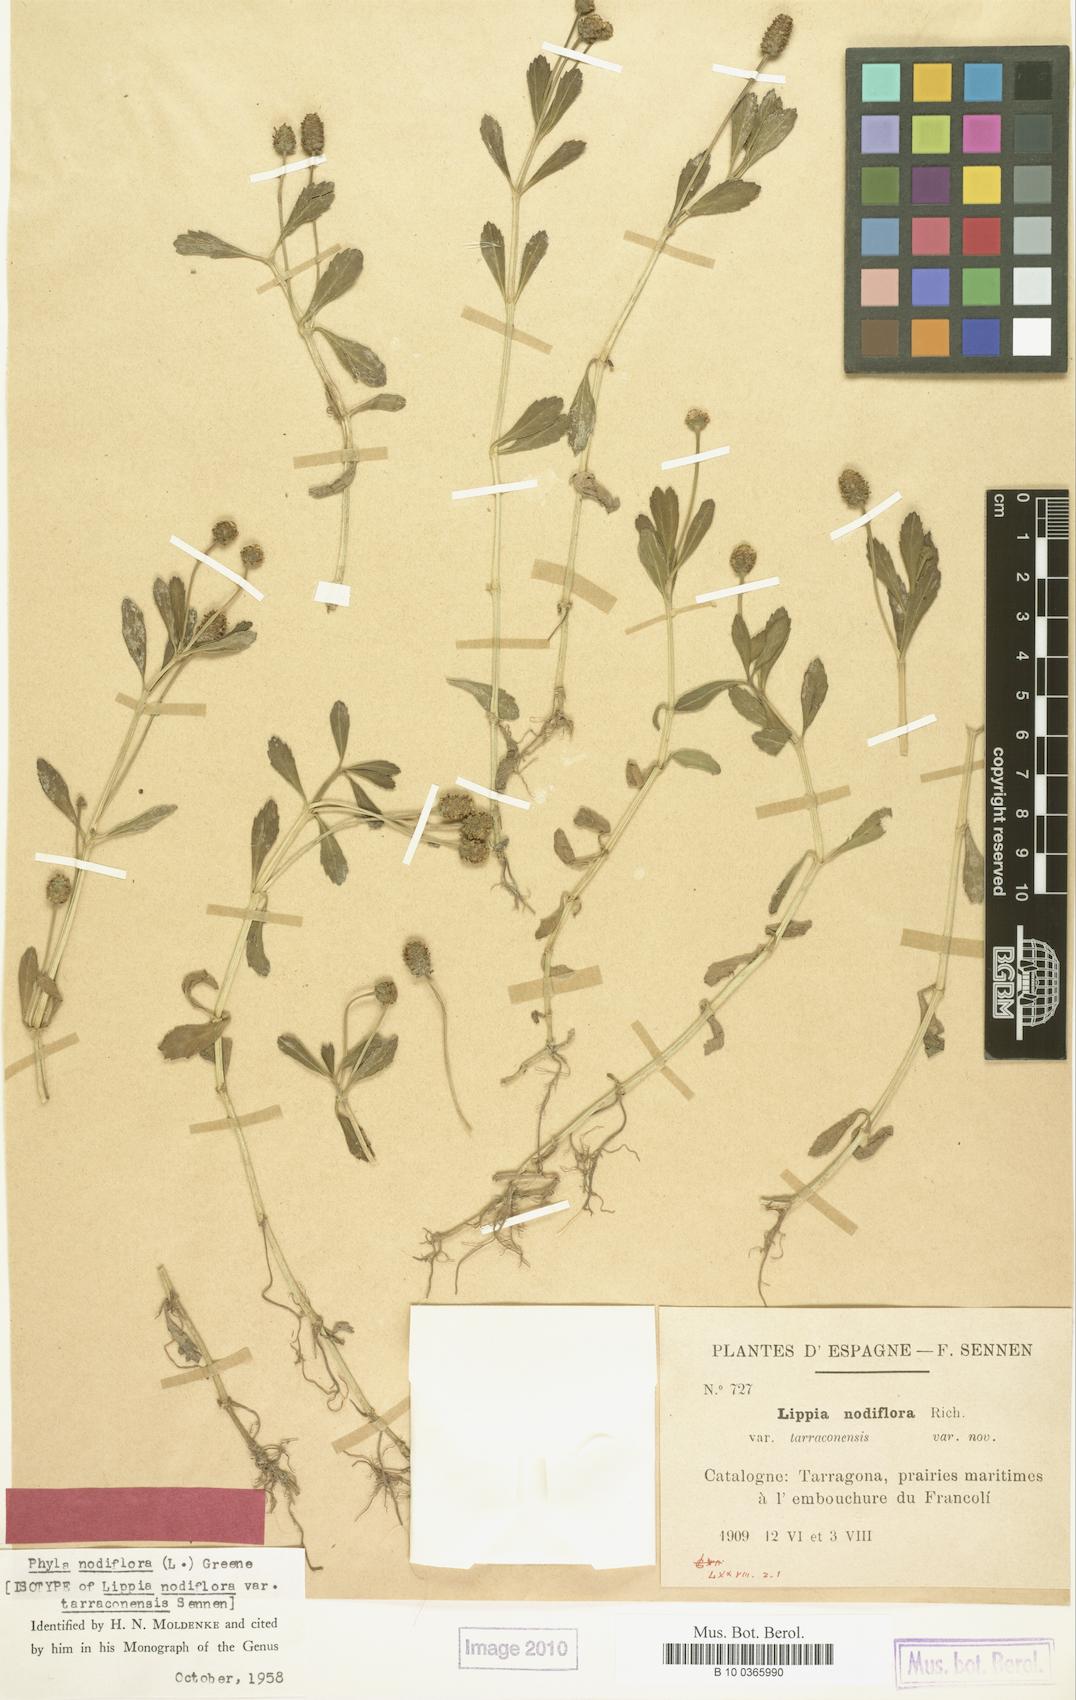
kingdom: Plantae
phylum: Tracheophyta
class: Magnoliopsida
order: Lamiales
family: Verbenaceae
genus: Phyla
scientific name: Phyla nodiflora
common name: Frogfruit
